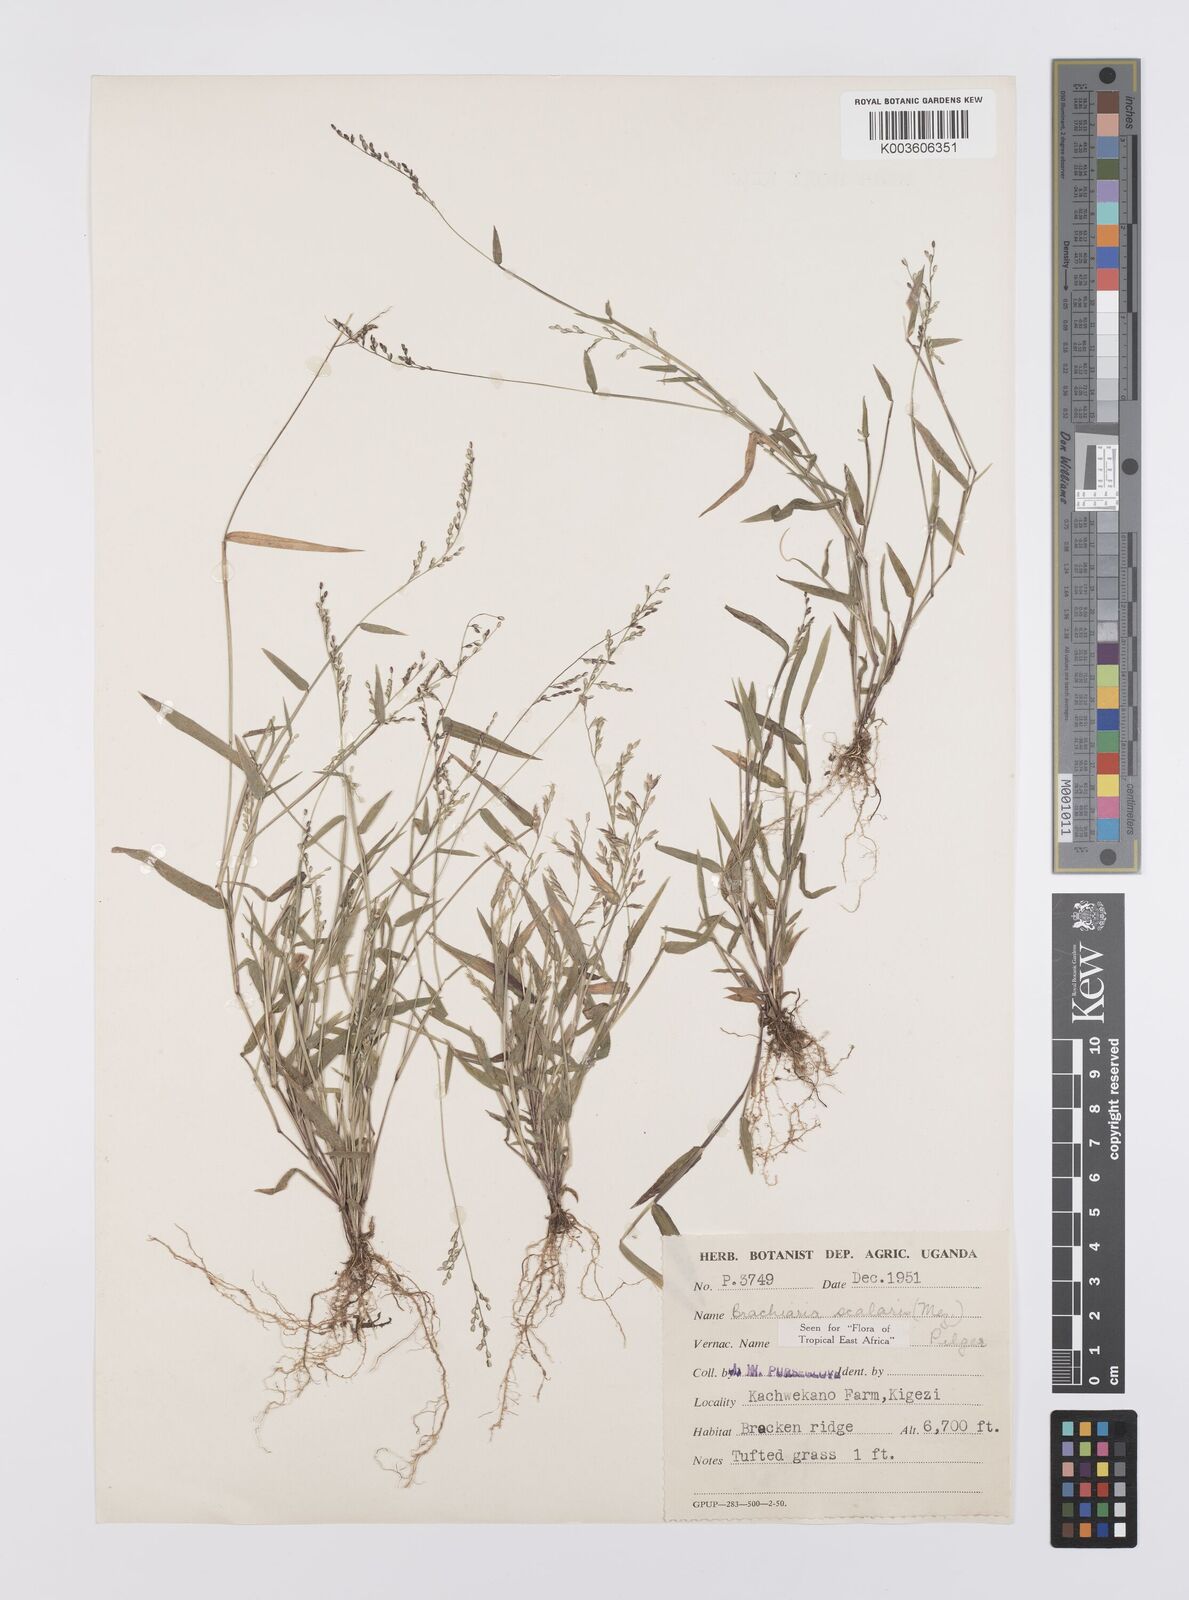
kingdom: Plantae
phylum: Tracheophyta
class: Liliopsida
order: Poales
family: Poaceae
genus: Urochloa
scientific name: Urochloa comata
